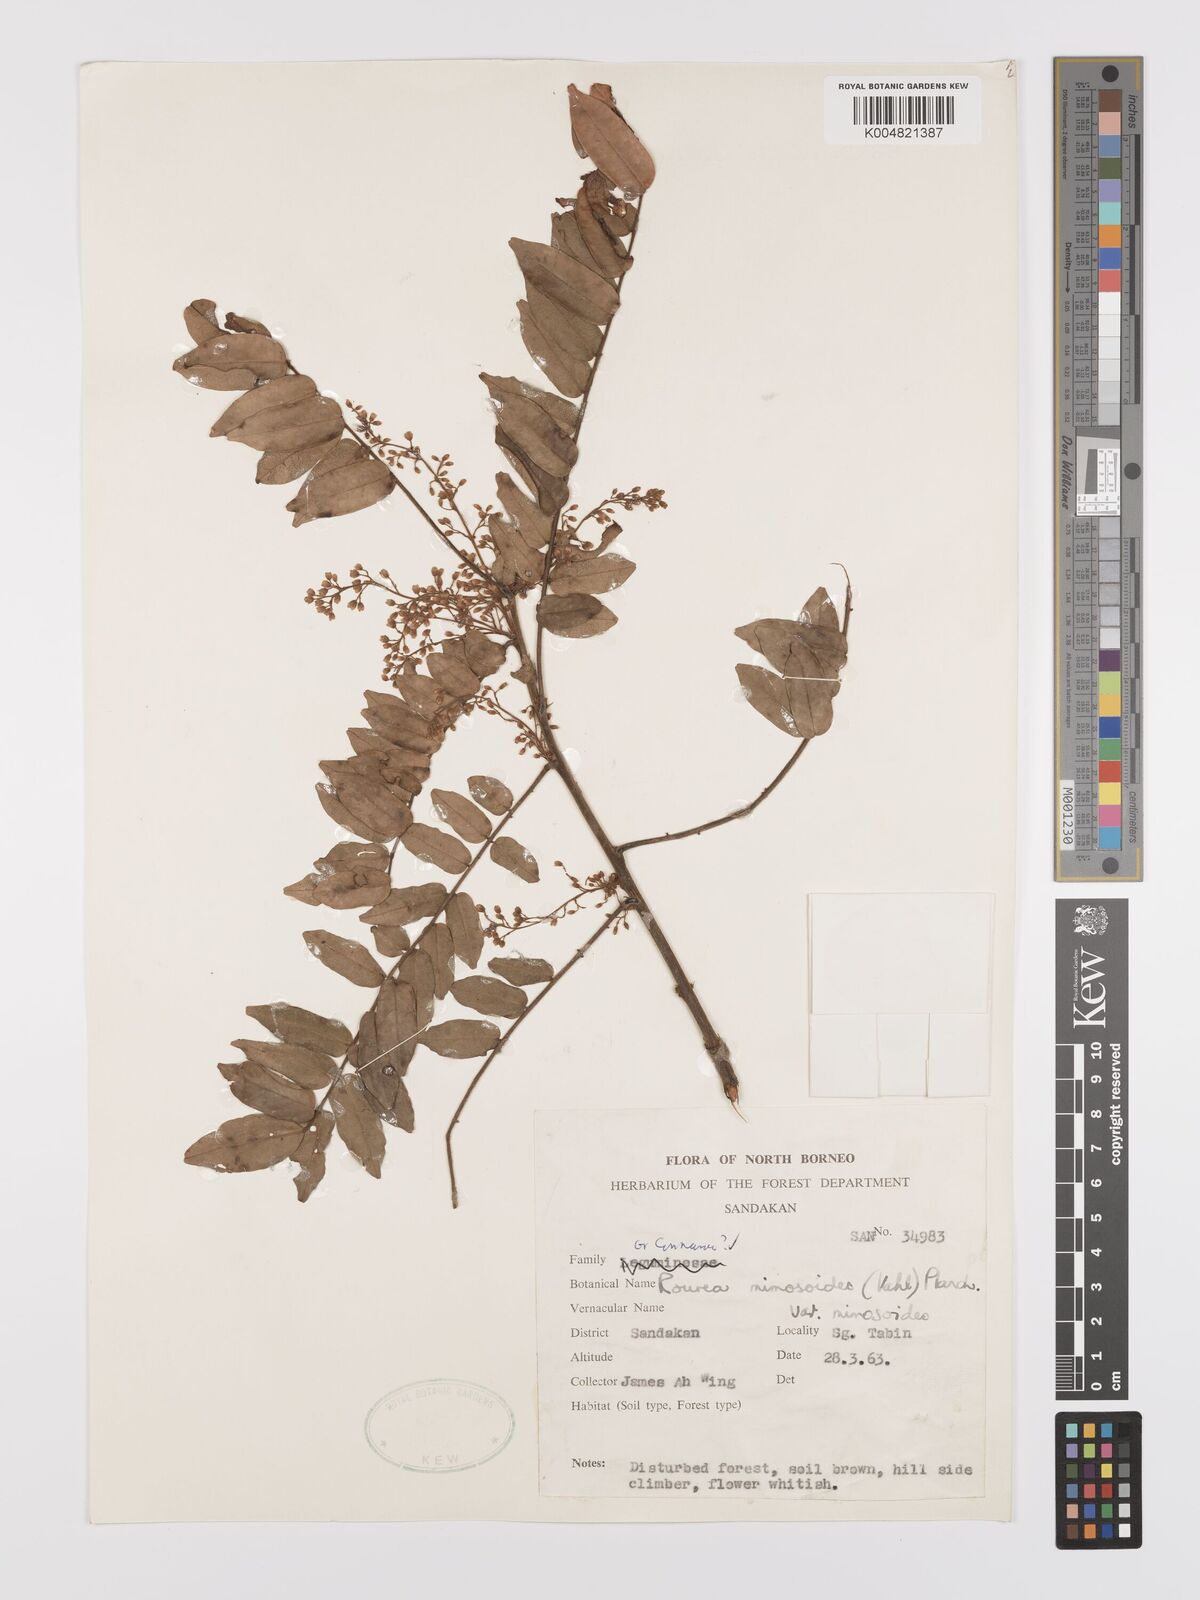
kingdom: Plantae
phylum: Tracheophyta
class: Magnoliopsida
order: Oxalidales
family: Connaraceae
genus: Rourea
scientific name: Rourea mimosoides
